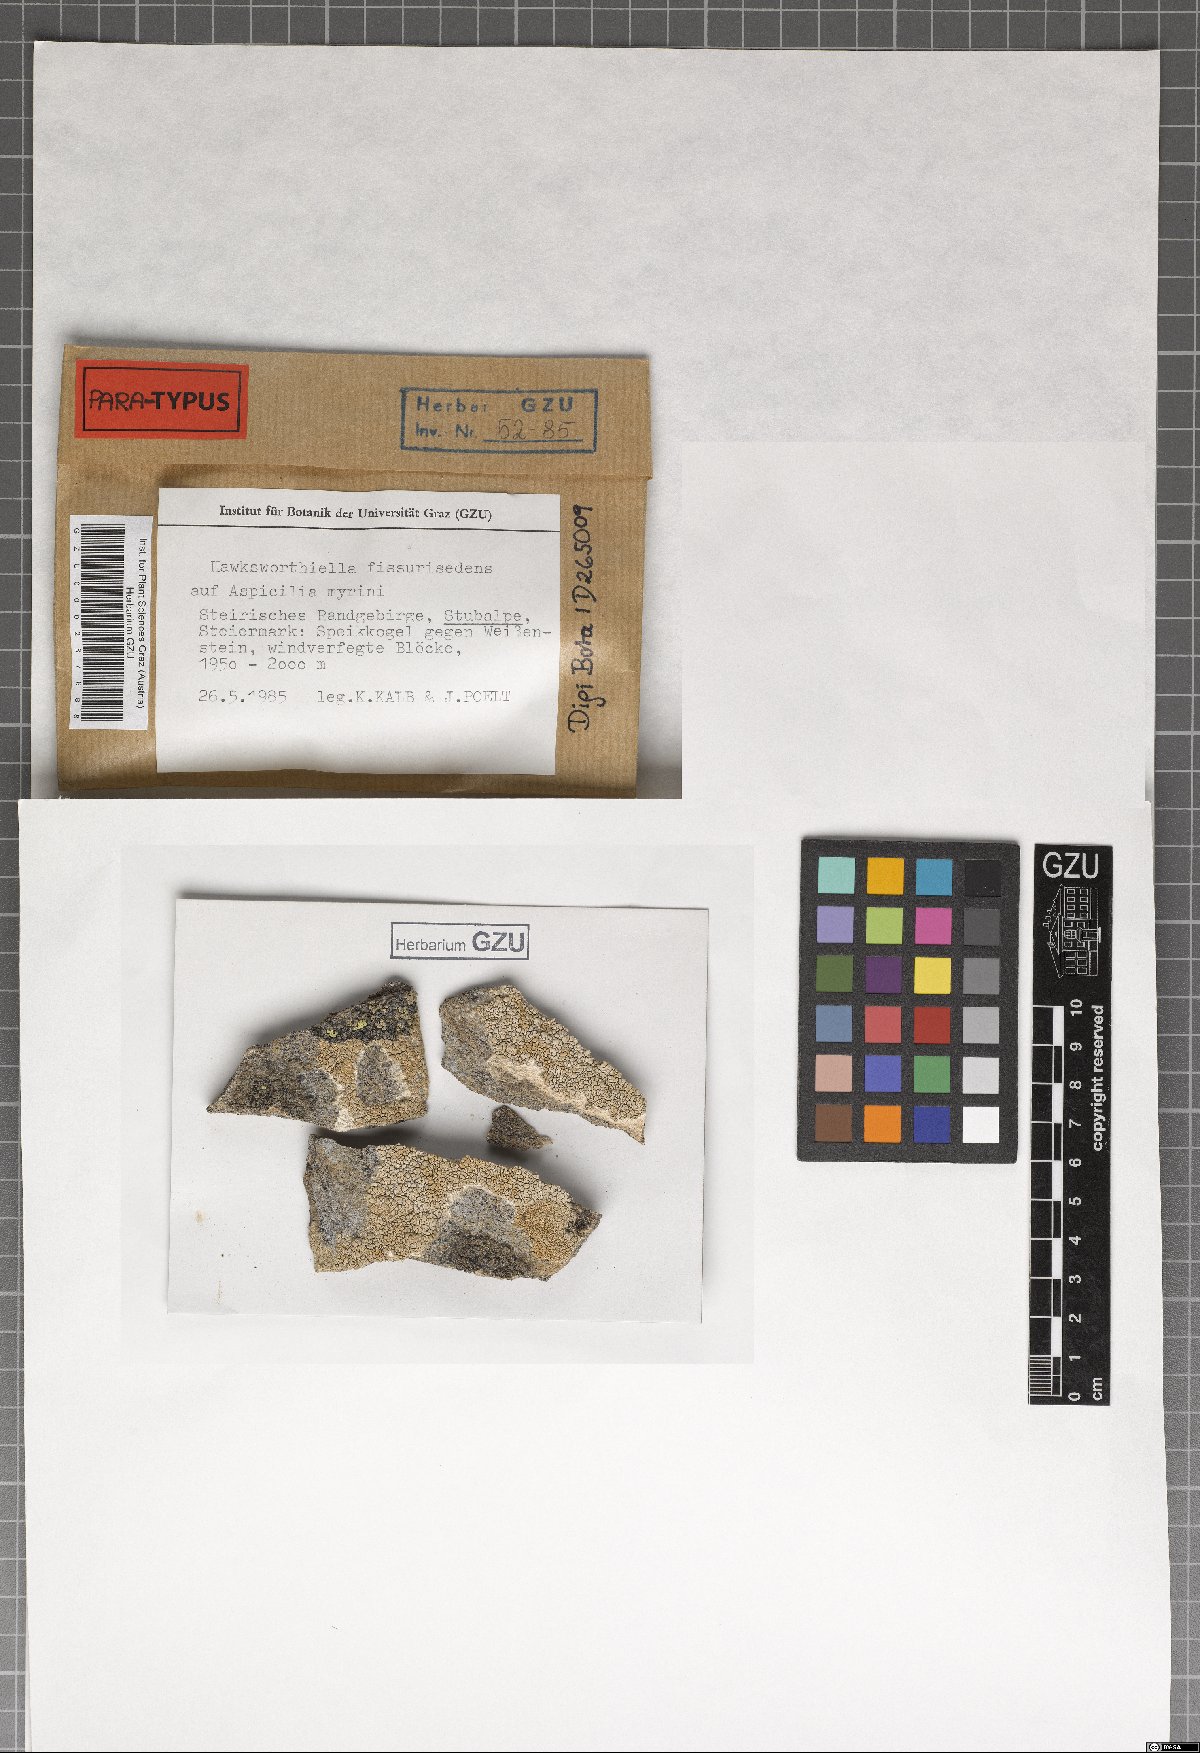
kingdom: Fungi
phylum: Ascomycota
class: Eurotiomycetes
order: Verrucariales
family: Adelococcaceae
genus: Sagediopsis
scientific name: Sagediopsis fissurisedens
